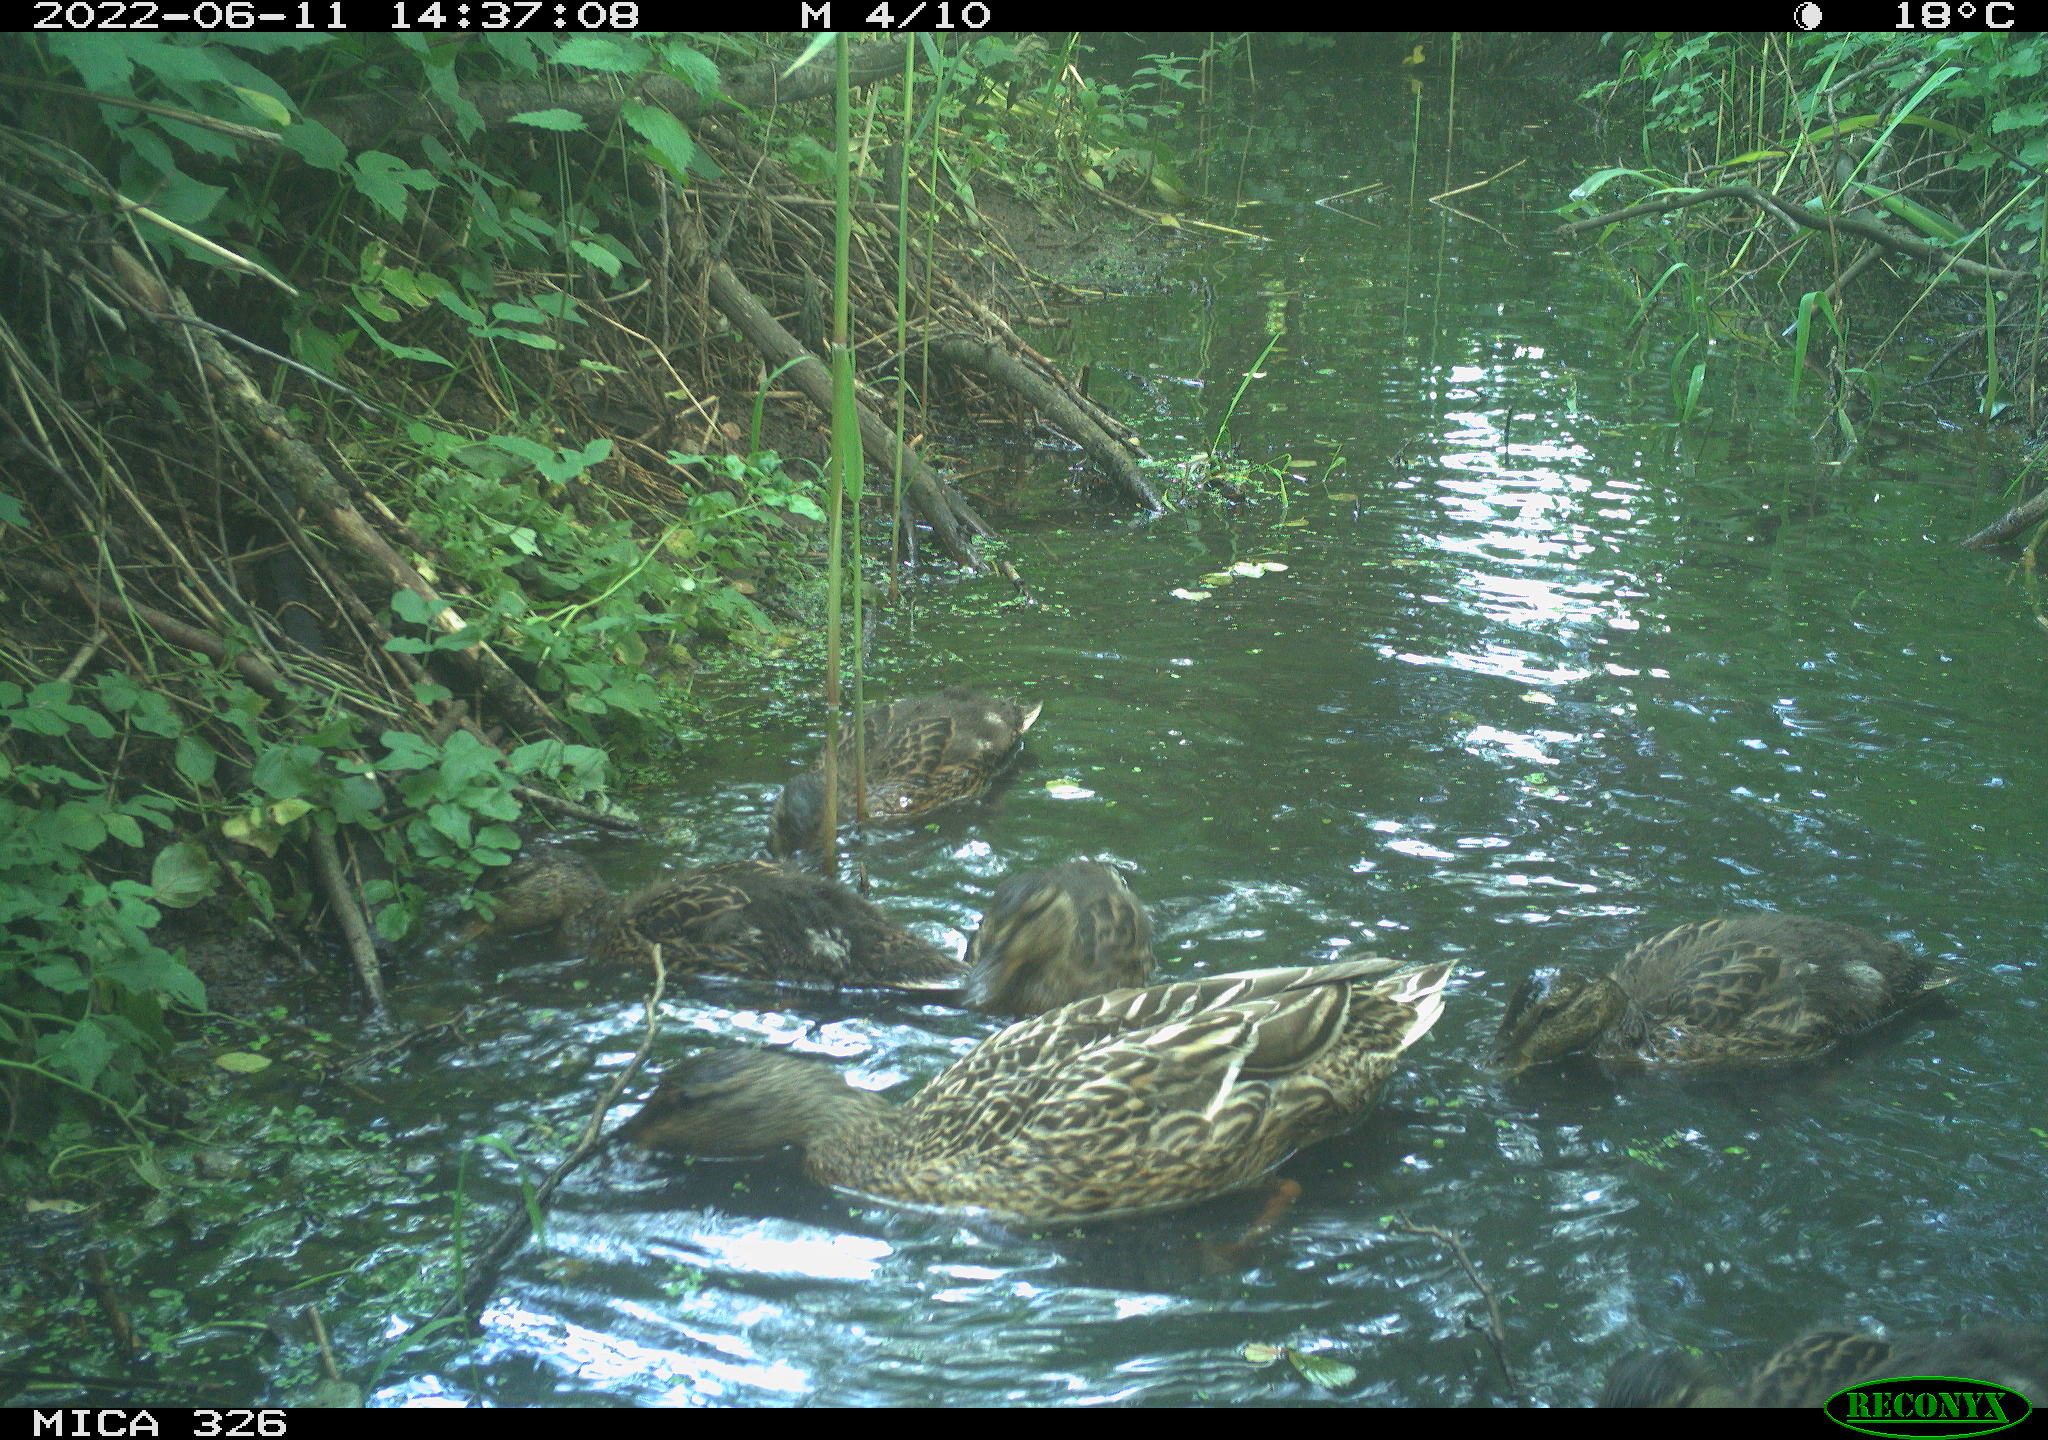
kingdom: Animalia
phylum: Chordata
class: Aves
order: Anseriformes
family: Anatidae
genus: Anas
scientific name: Anas platyrhynchos
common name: Mallard
